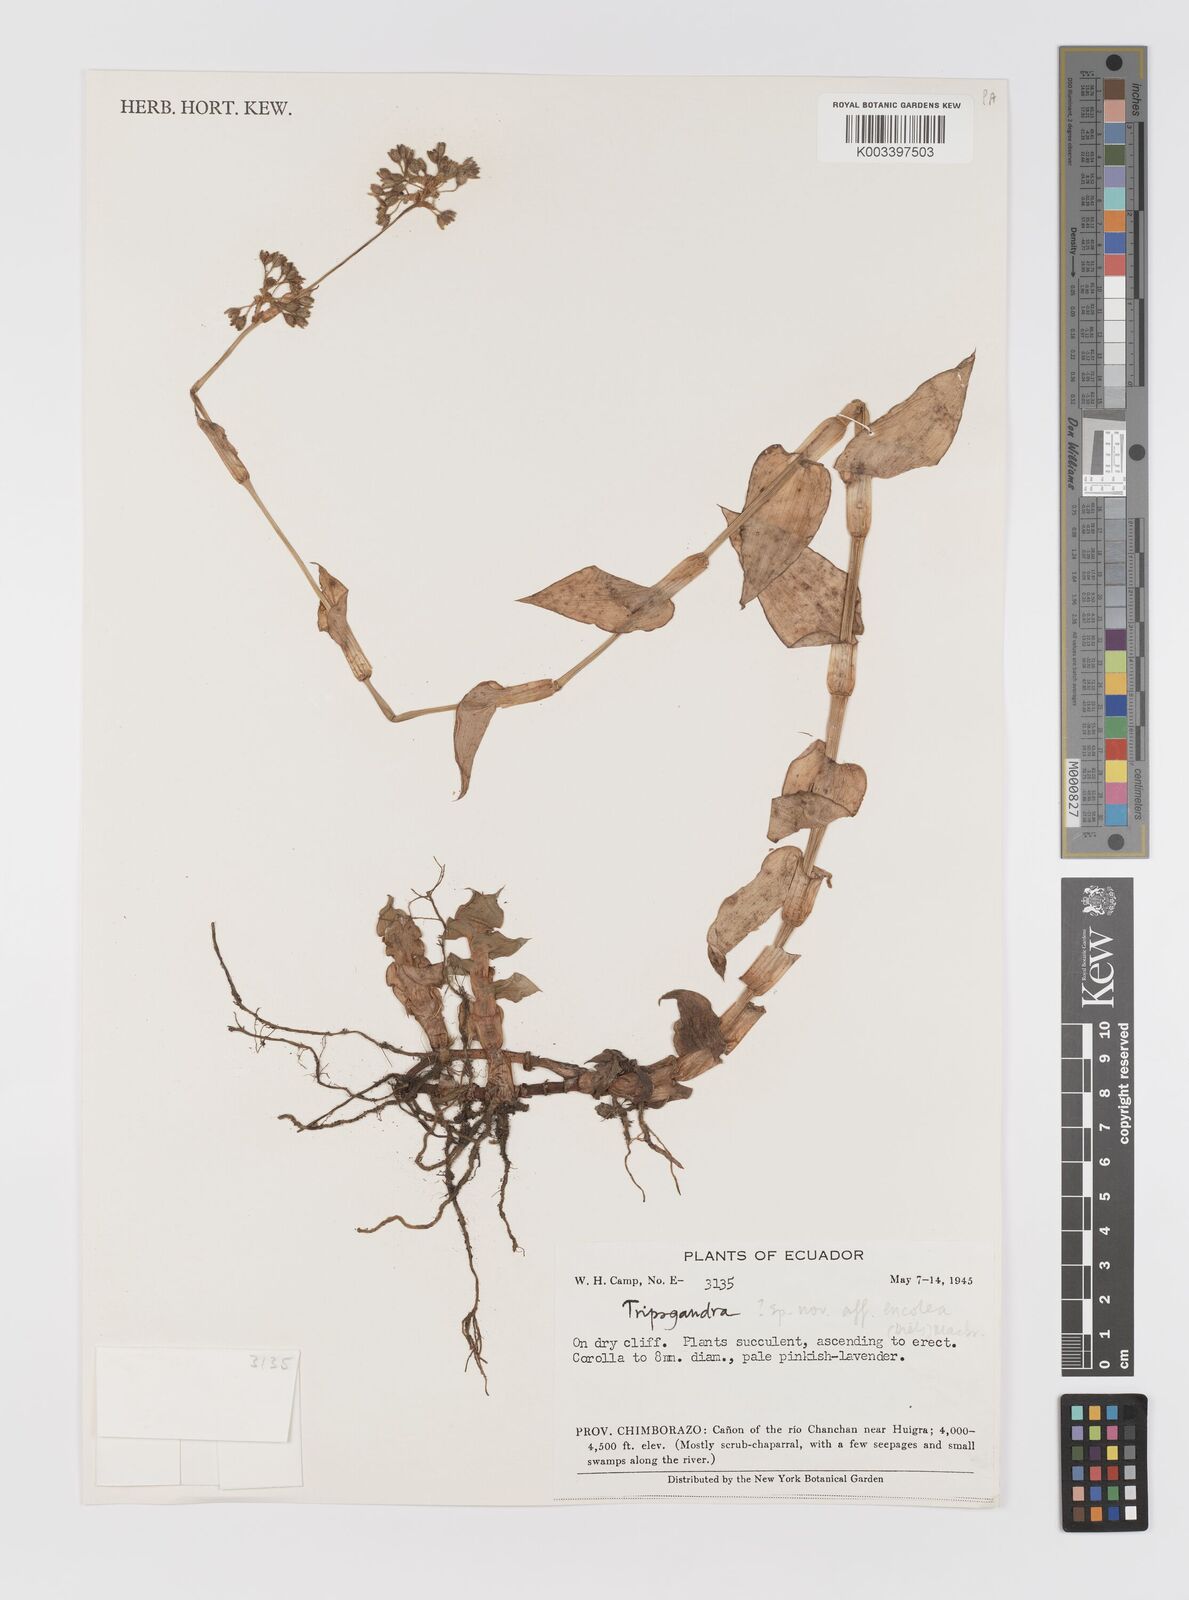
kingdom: Plantae
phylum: Tracheophyta
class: Liliopsida
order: Commelinales
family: Commelinaceae
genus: Callisia
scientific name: Callisia encolea
